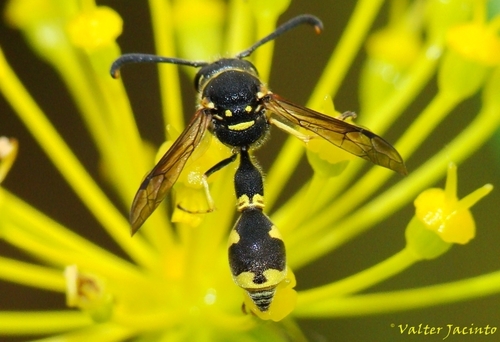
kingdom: Animalia
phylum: Arthropoda
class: Insecta
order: Hymenoptera
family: Vespidae
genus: Eumenes
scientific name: Eumenes
